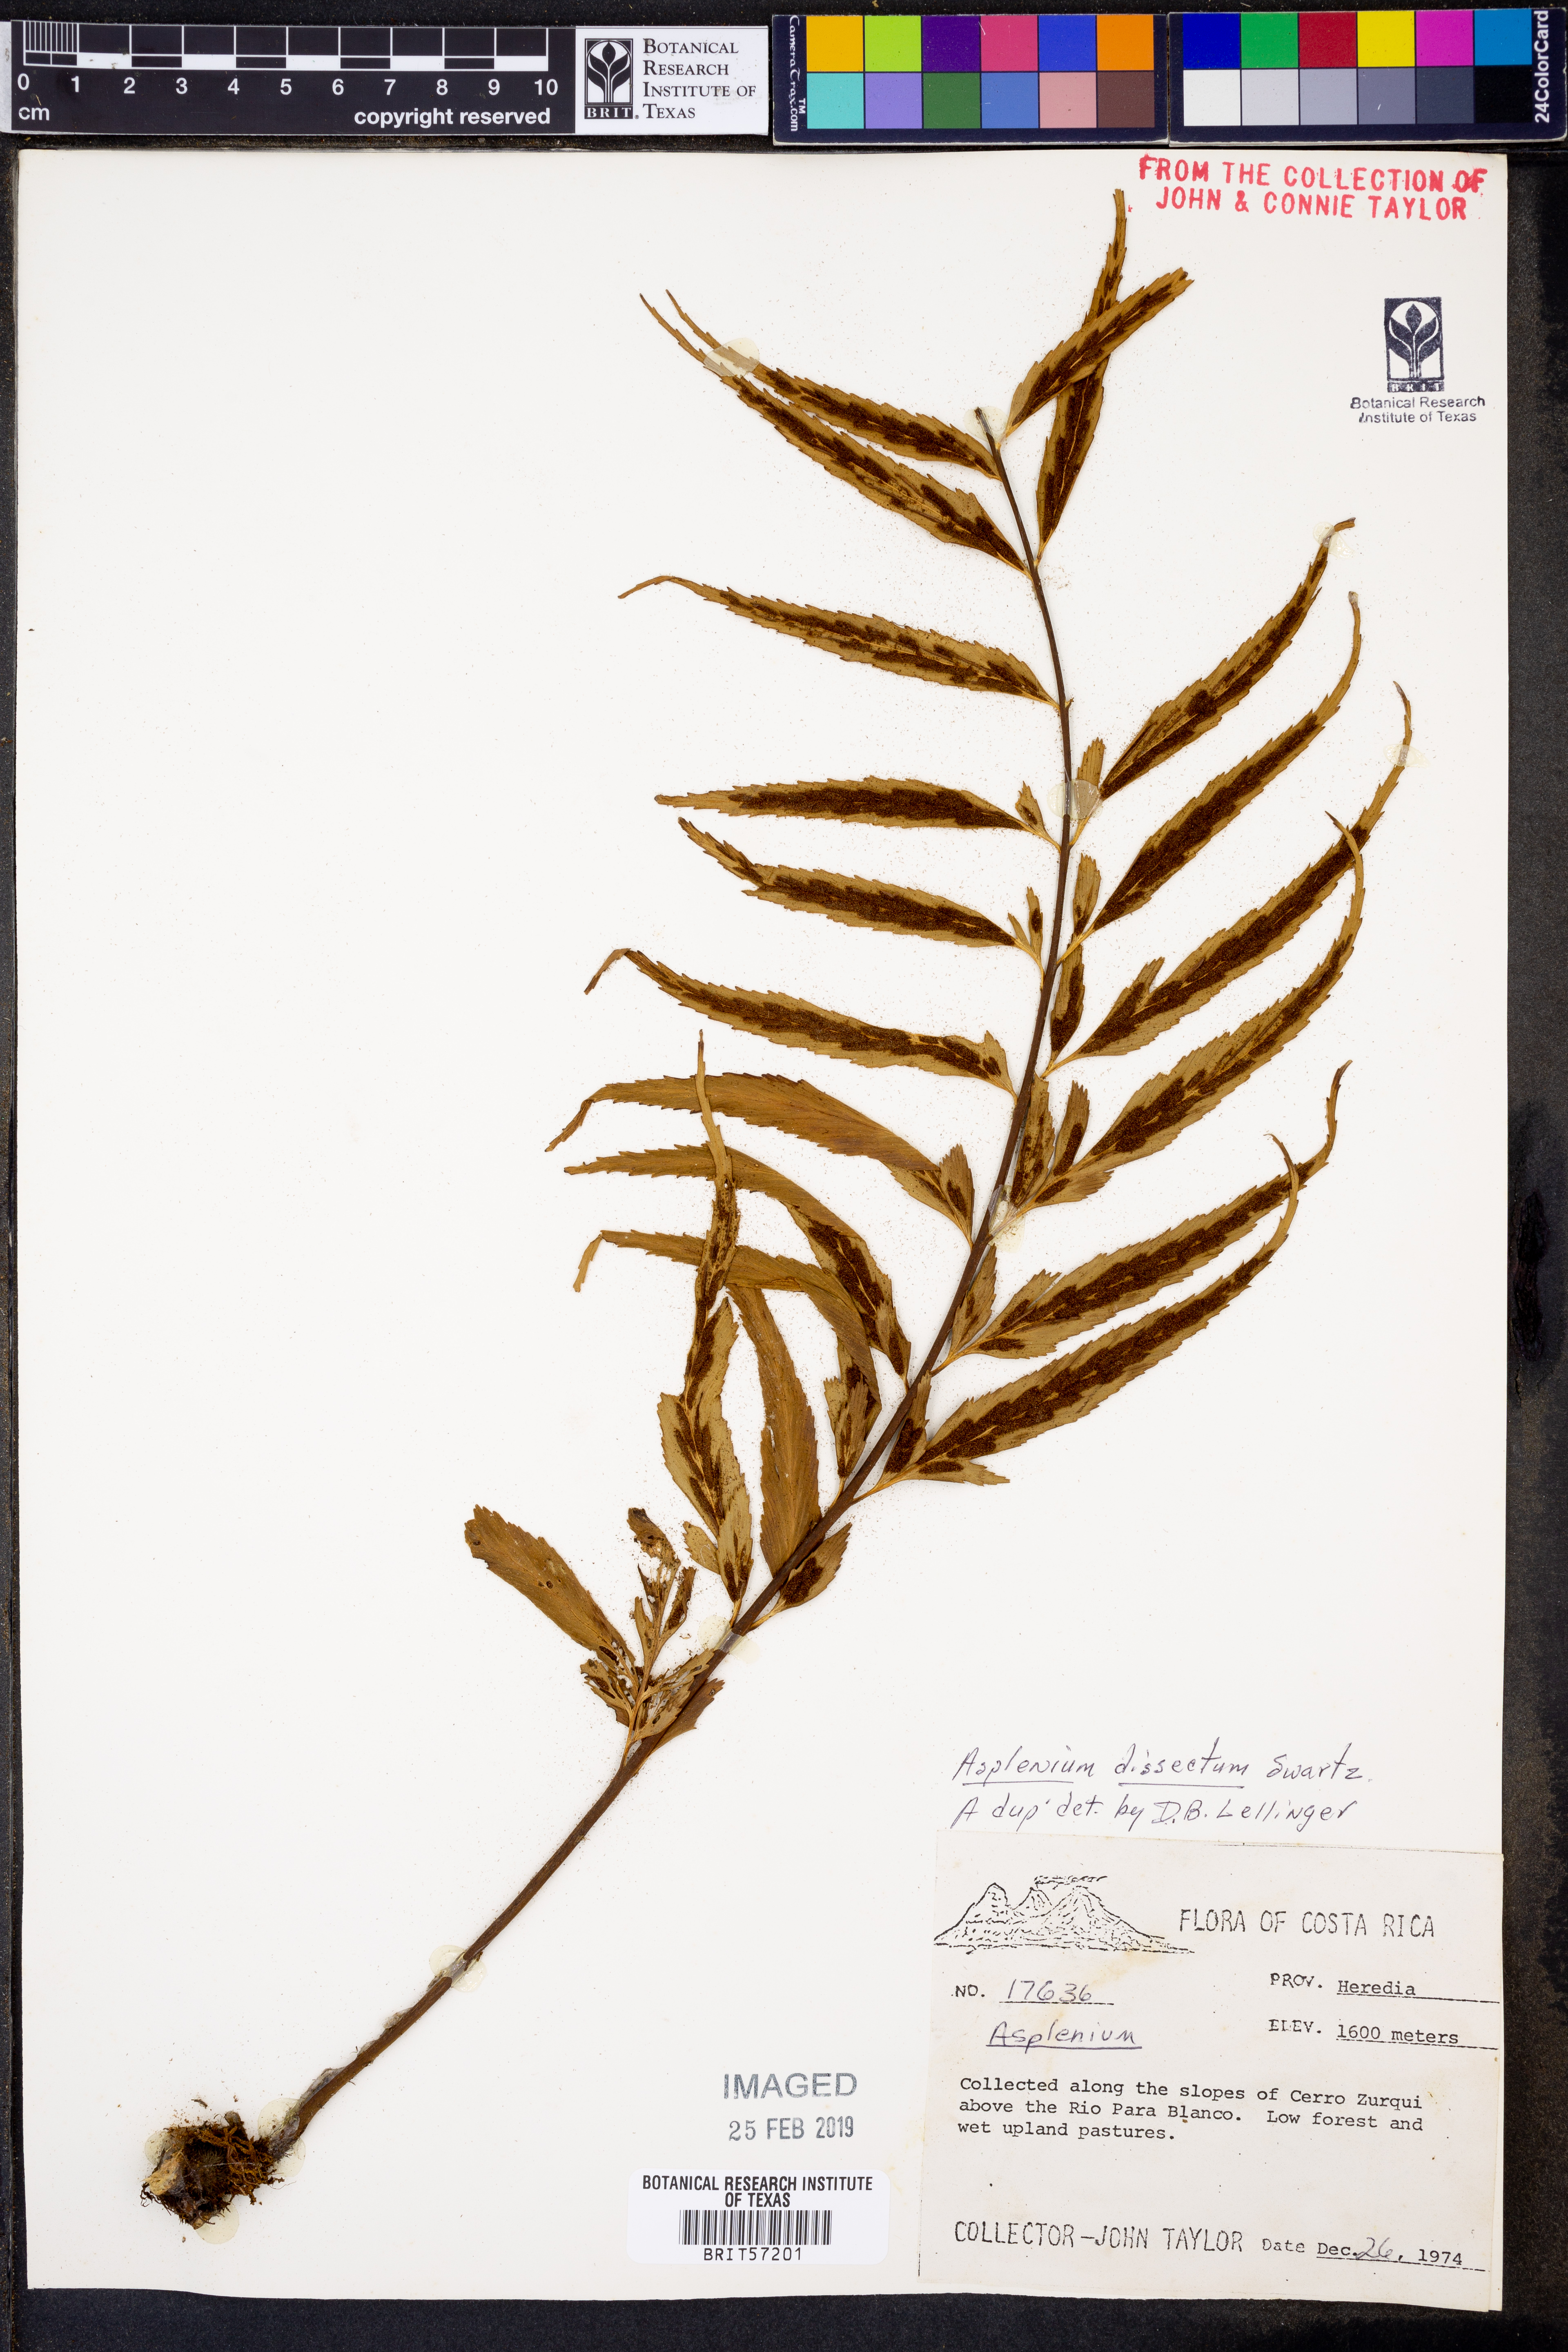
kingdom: Plantae
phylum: Tracheophyta
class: Polypodiopsida
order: Polypodiales
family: Aspleniaceae
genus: Asplenium
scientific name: Asplenium dissectum
